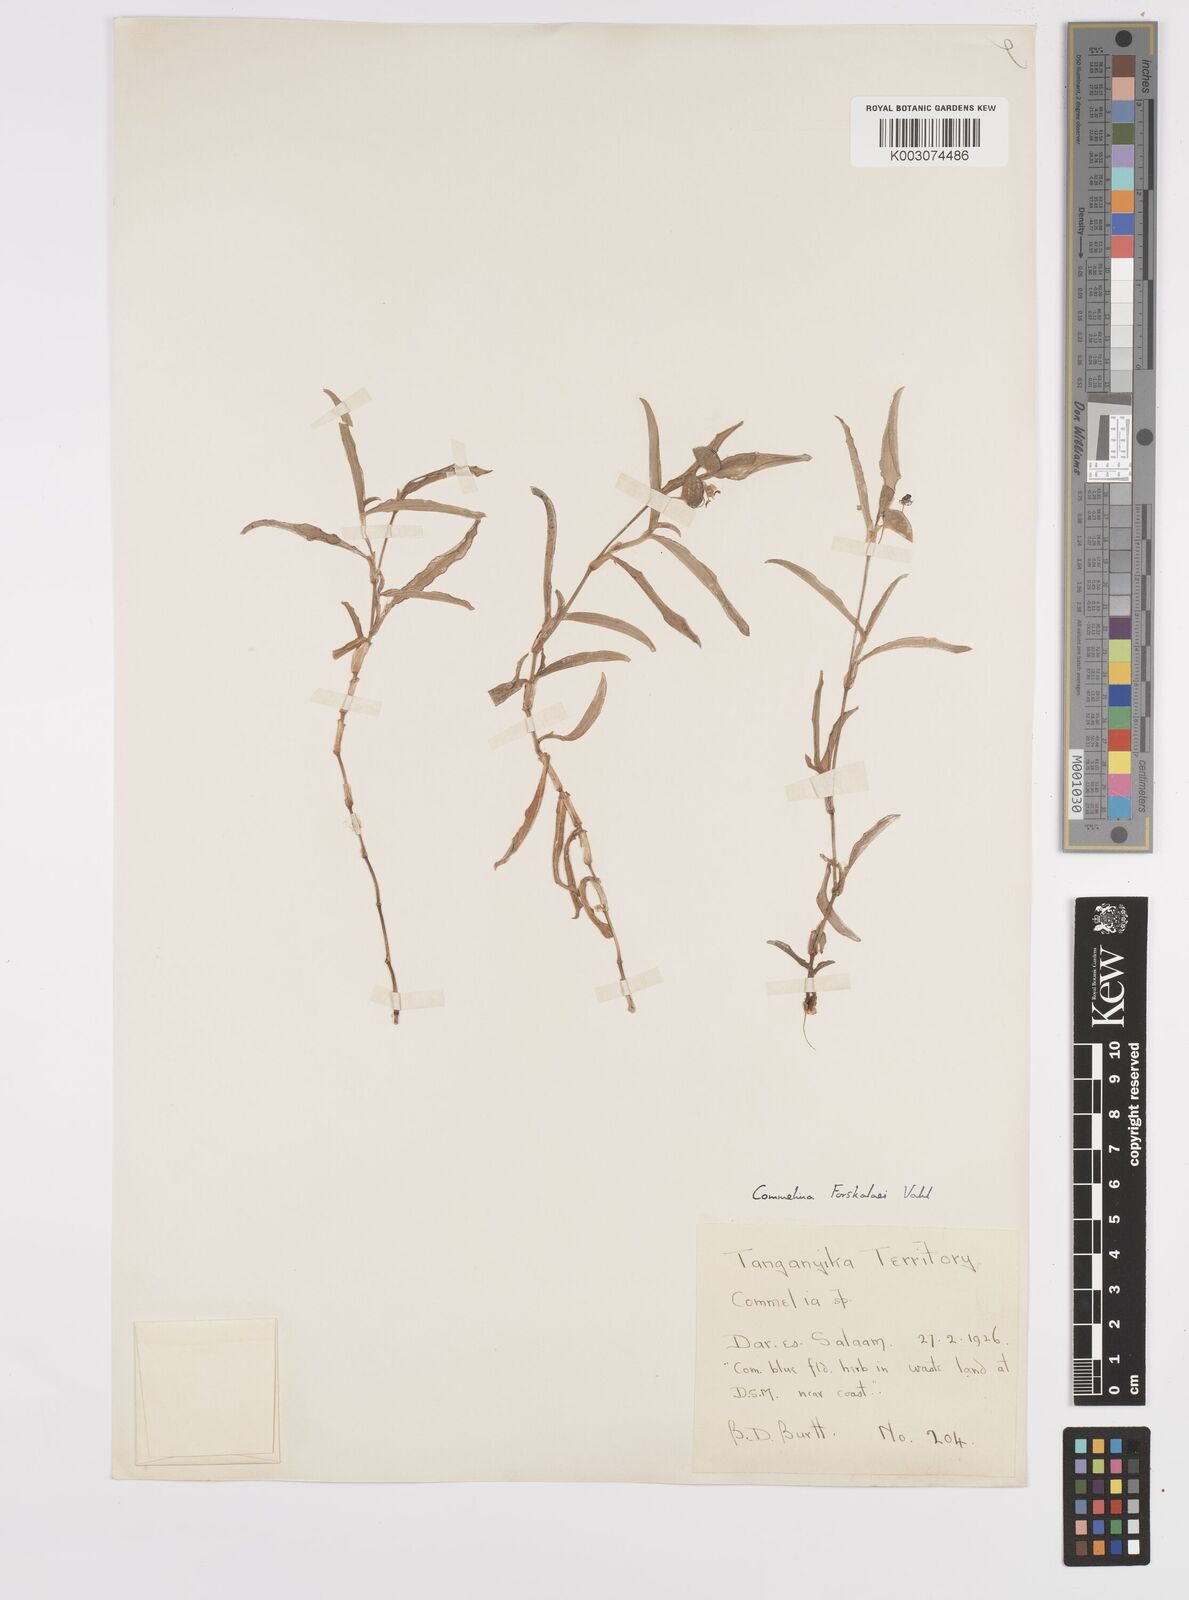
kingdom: Plantae
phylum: Tracheophyta
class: Liliopsida
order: Commelinales
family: Commelinaceae
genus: Commelina
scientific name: Commelina
